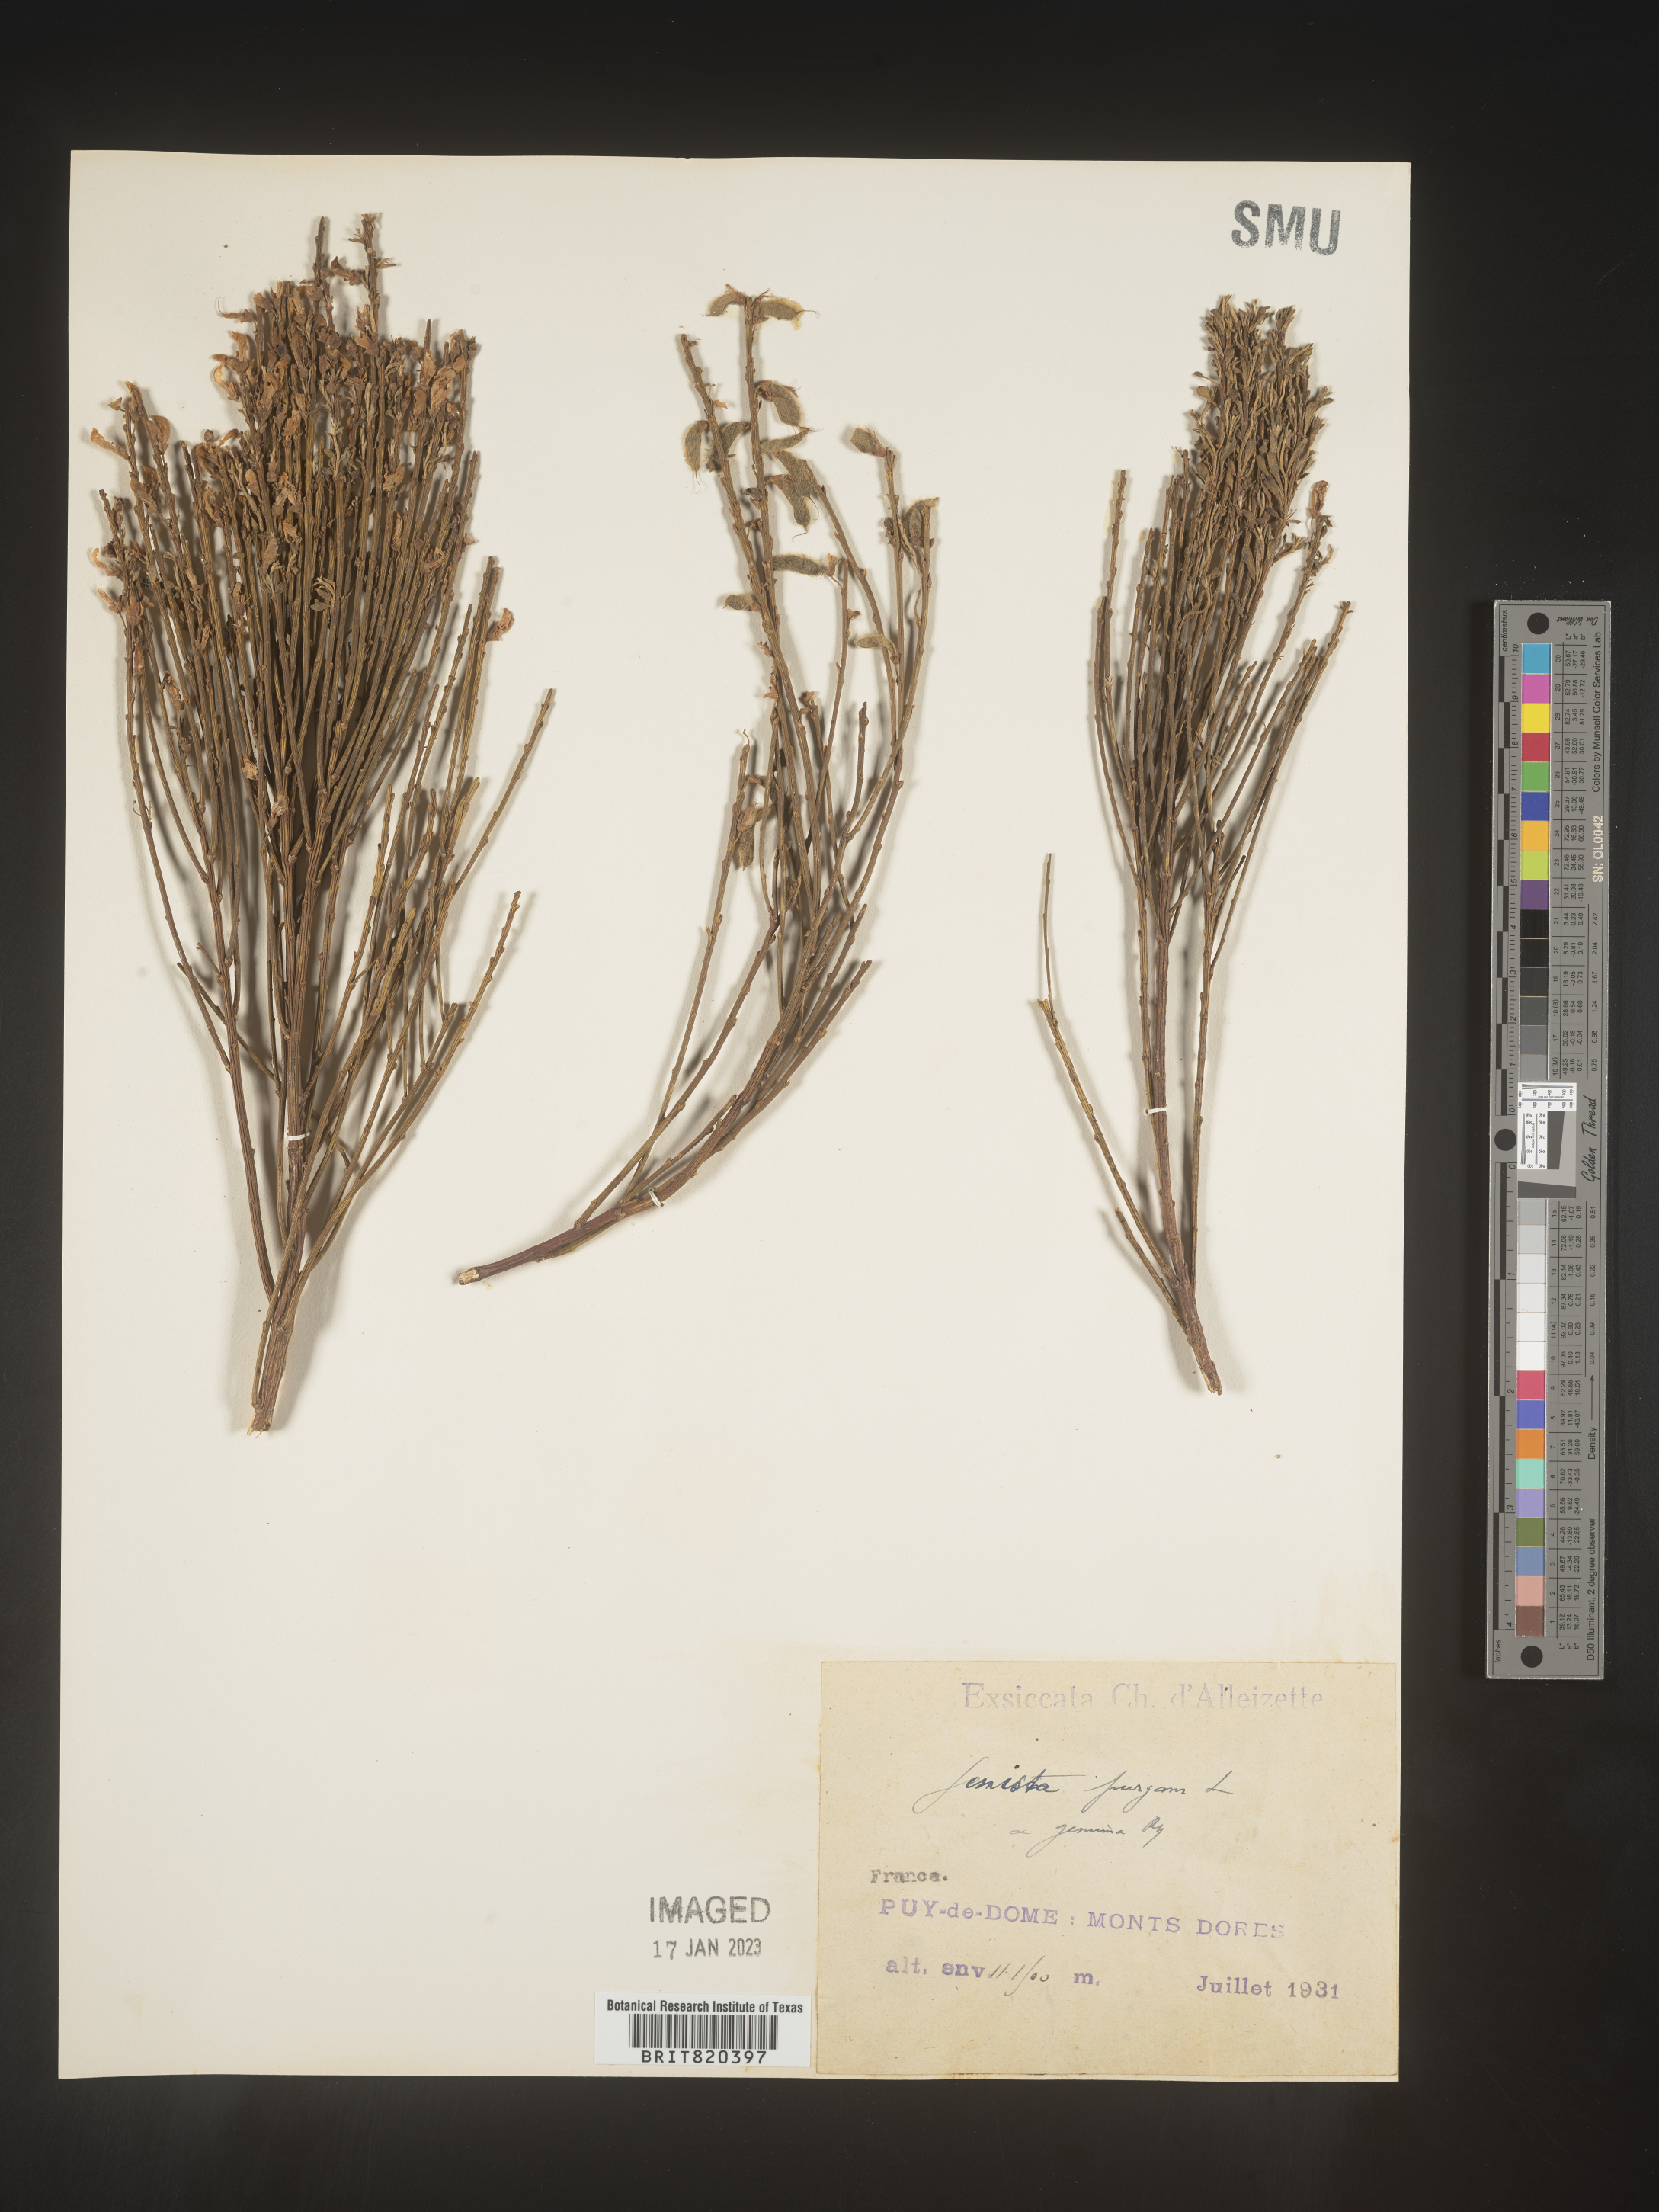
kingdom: Plantae
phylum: Tracheophyta
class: Magnoliopsida
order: Fabales
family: Fabaceae
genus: Genista
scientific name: Genista
